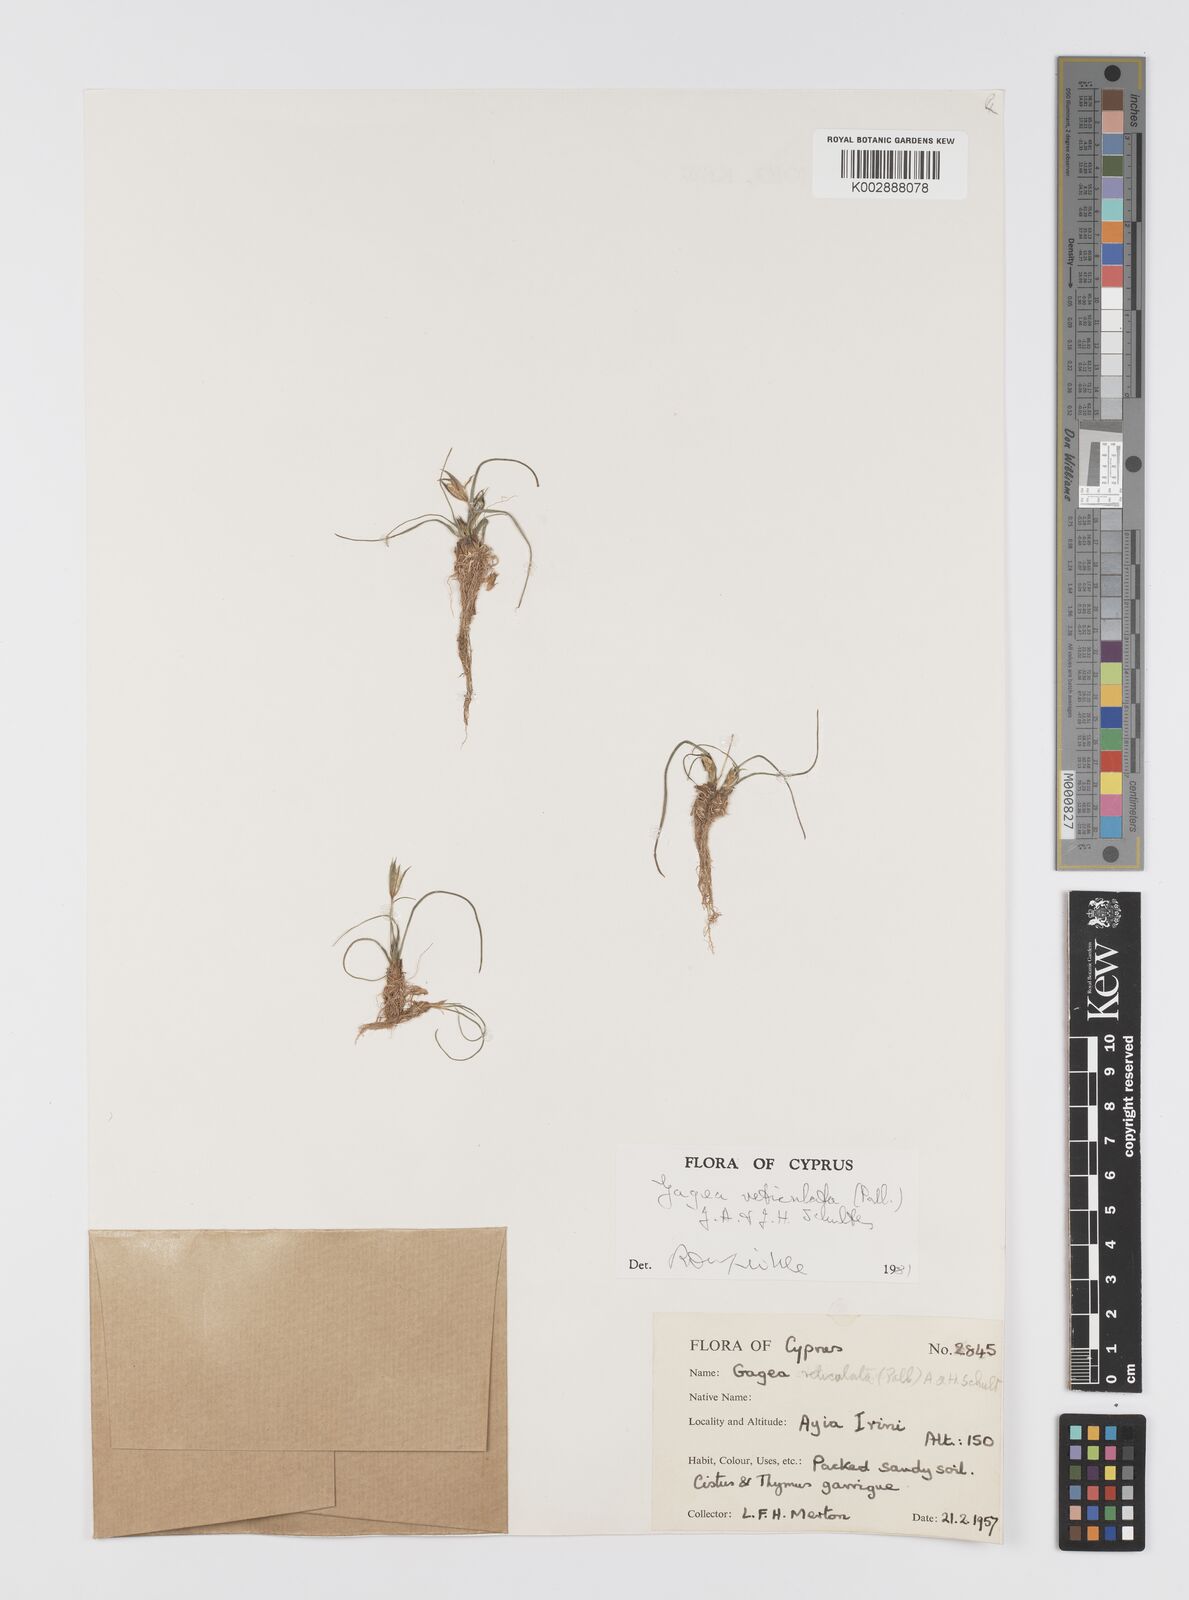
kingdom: Plantae
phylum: Tracheophyta
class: Liliopsida
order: Liliales
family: Liliaceae
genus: Gagea
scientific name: Gagea reticulata
